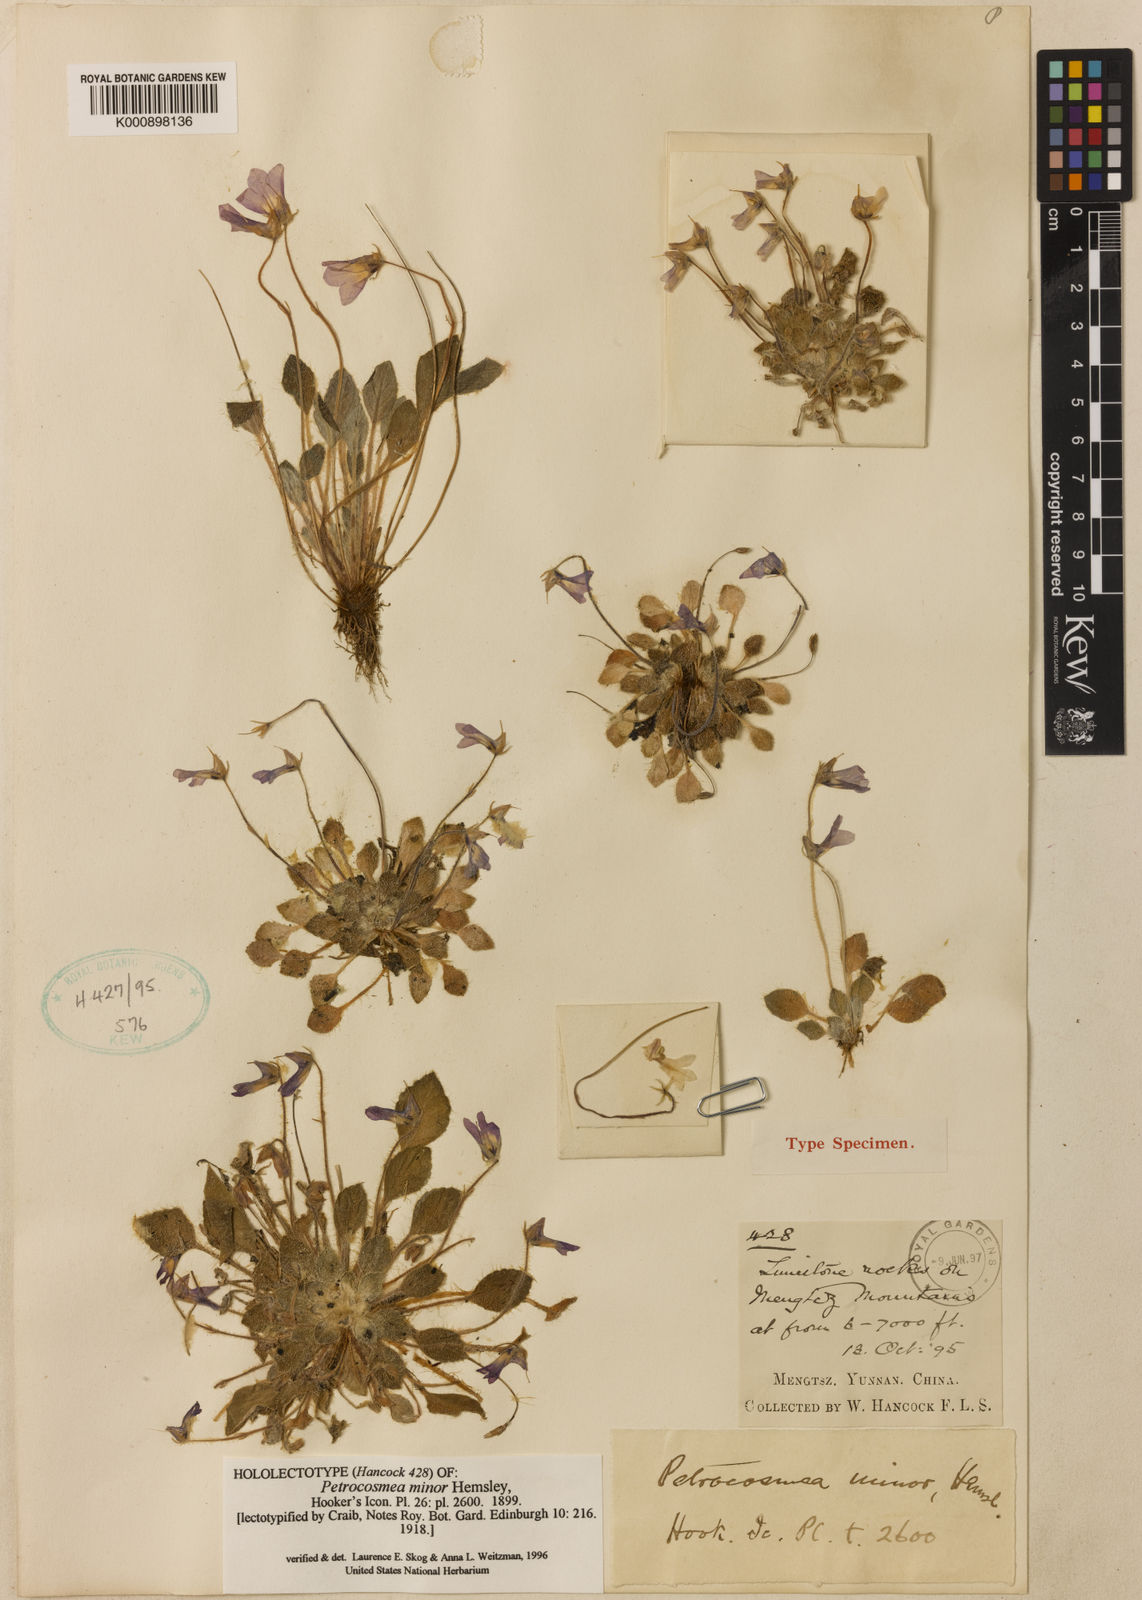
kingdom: Plantae
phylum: Tracheophyta
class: Magnoliopsida
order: Lamiales
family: Gesneriaceae
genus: Petrocosmea
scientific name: Petrocosmea minor
